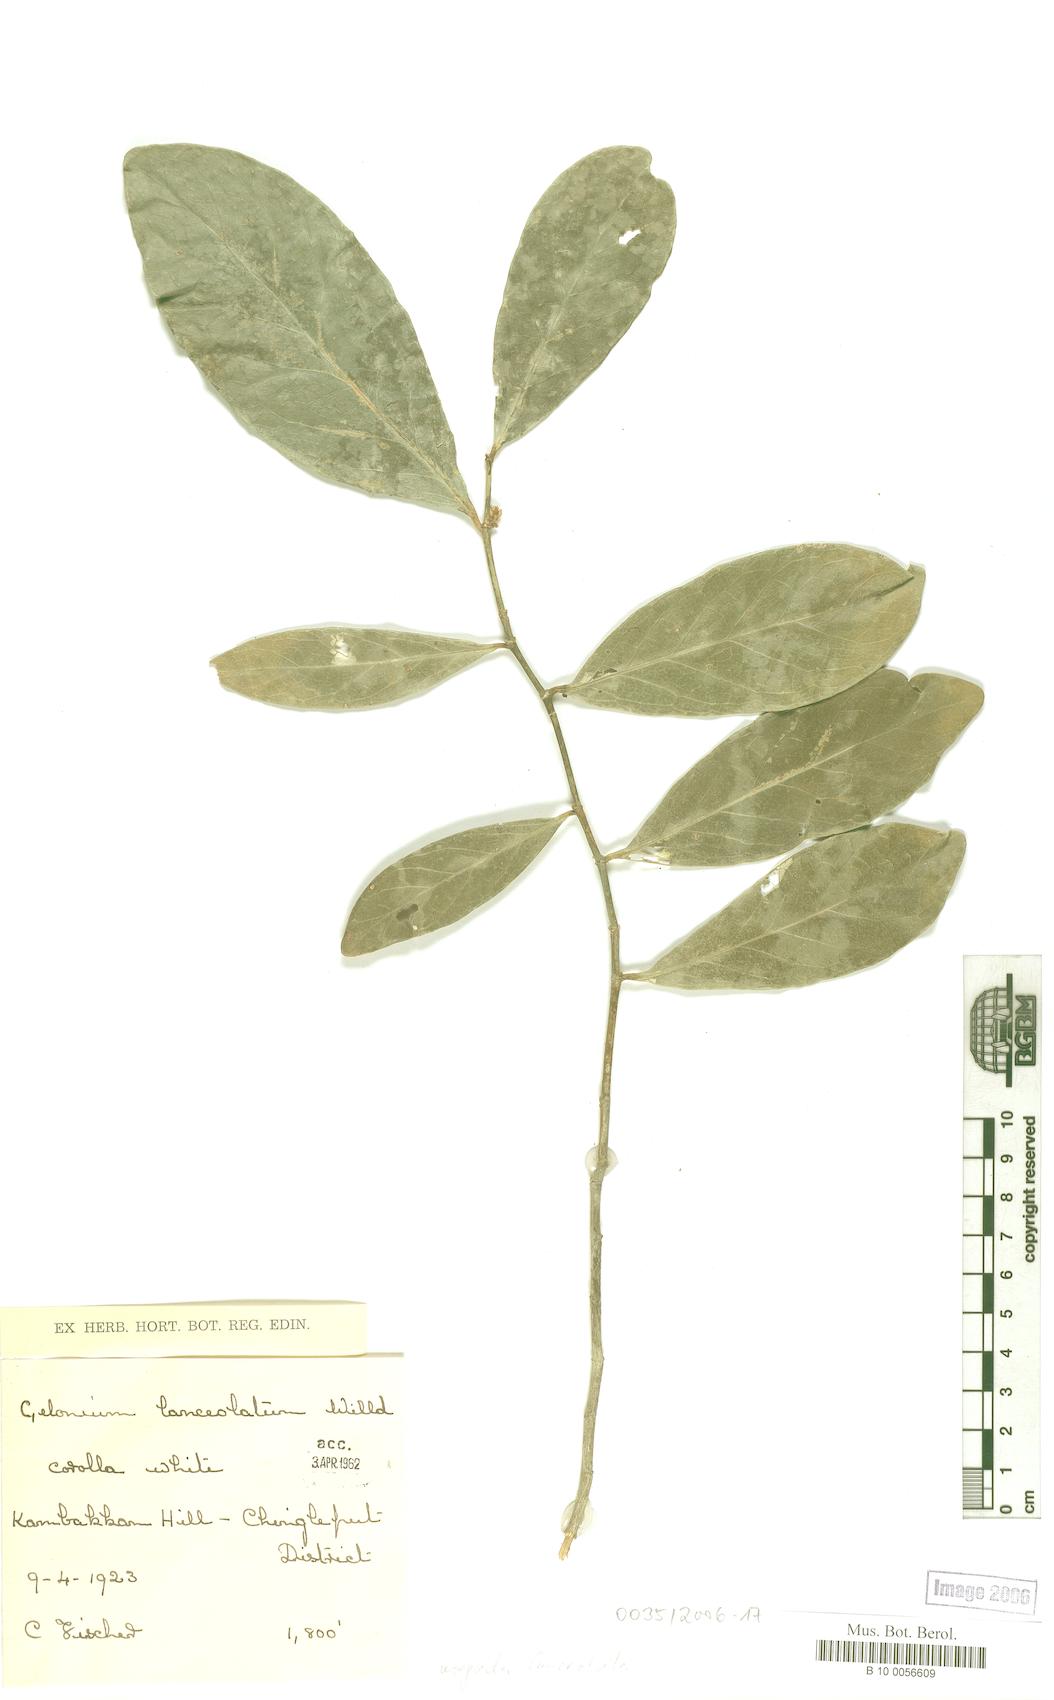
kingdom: Plantae
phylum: Tracheophyta
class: Magnoliopsida
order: Malpighiales
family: Euphorbiaceae
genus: Suregada
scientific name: Suregada lanceolata
